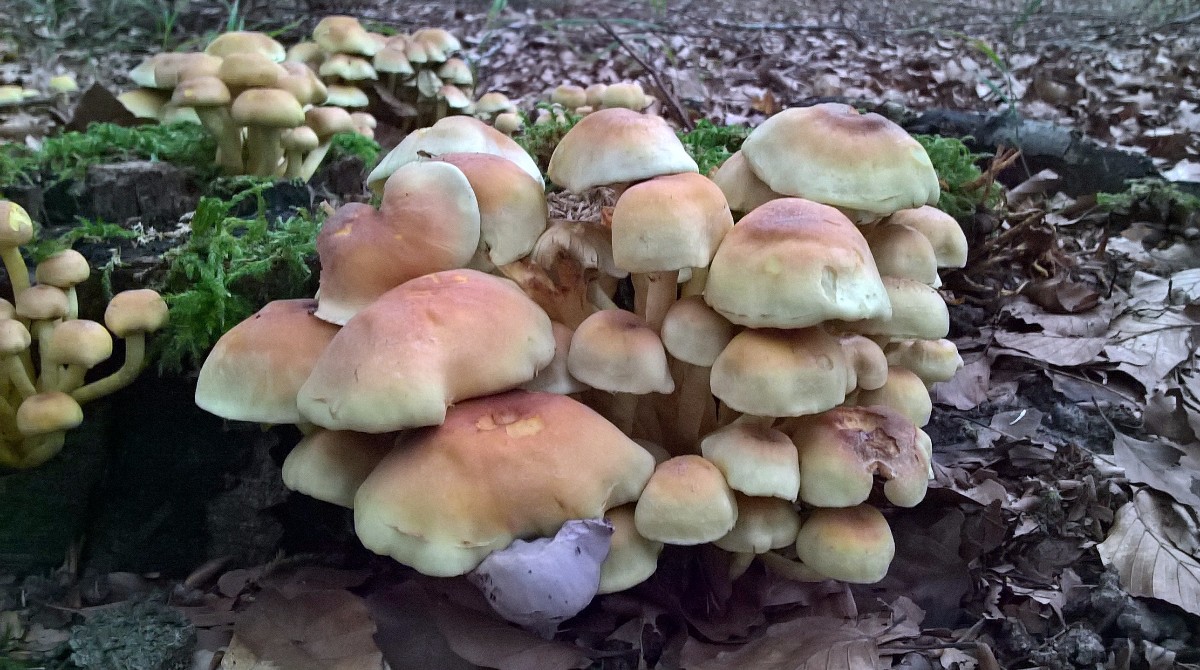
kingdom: Fungi
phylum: Basidiomycota
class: Agaricomycetes
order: Agaricales
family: Strophariaceae
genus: Hypholoma
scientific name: Hypholoma fasciculare
